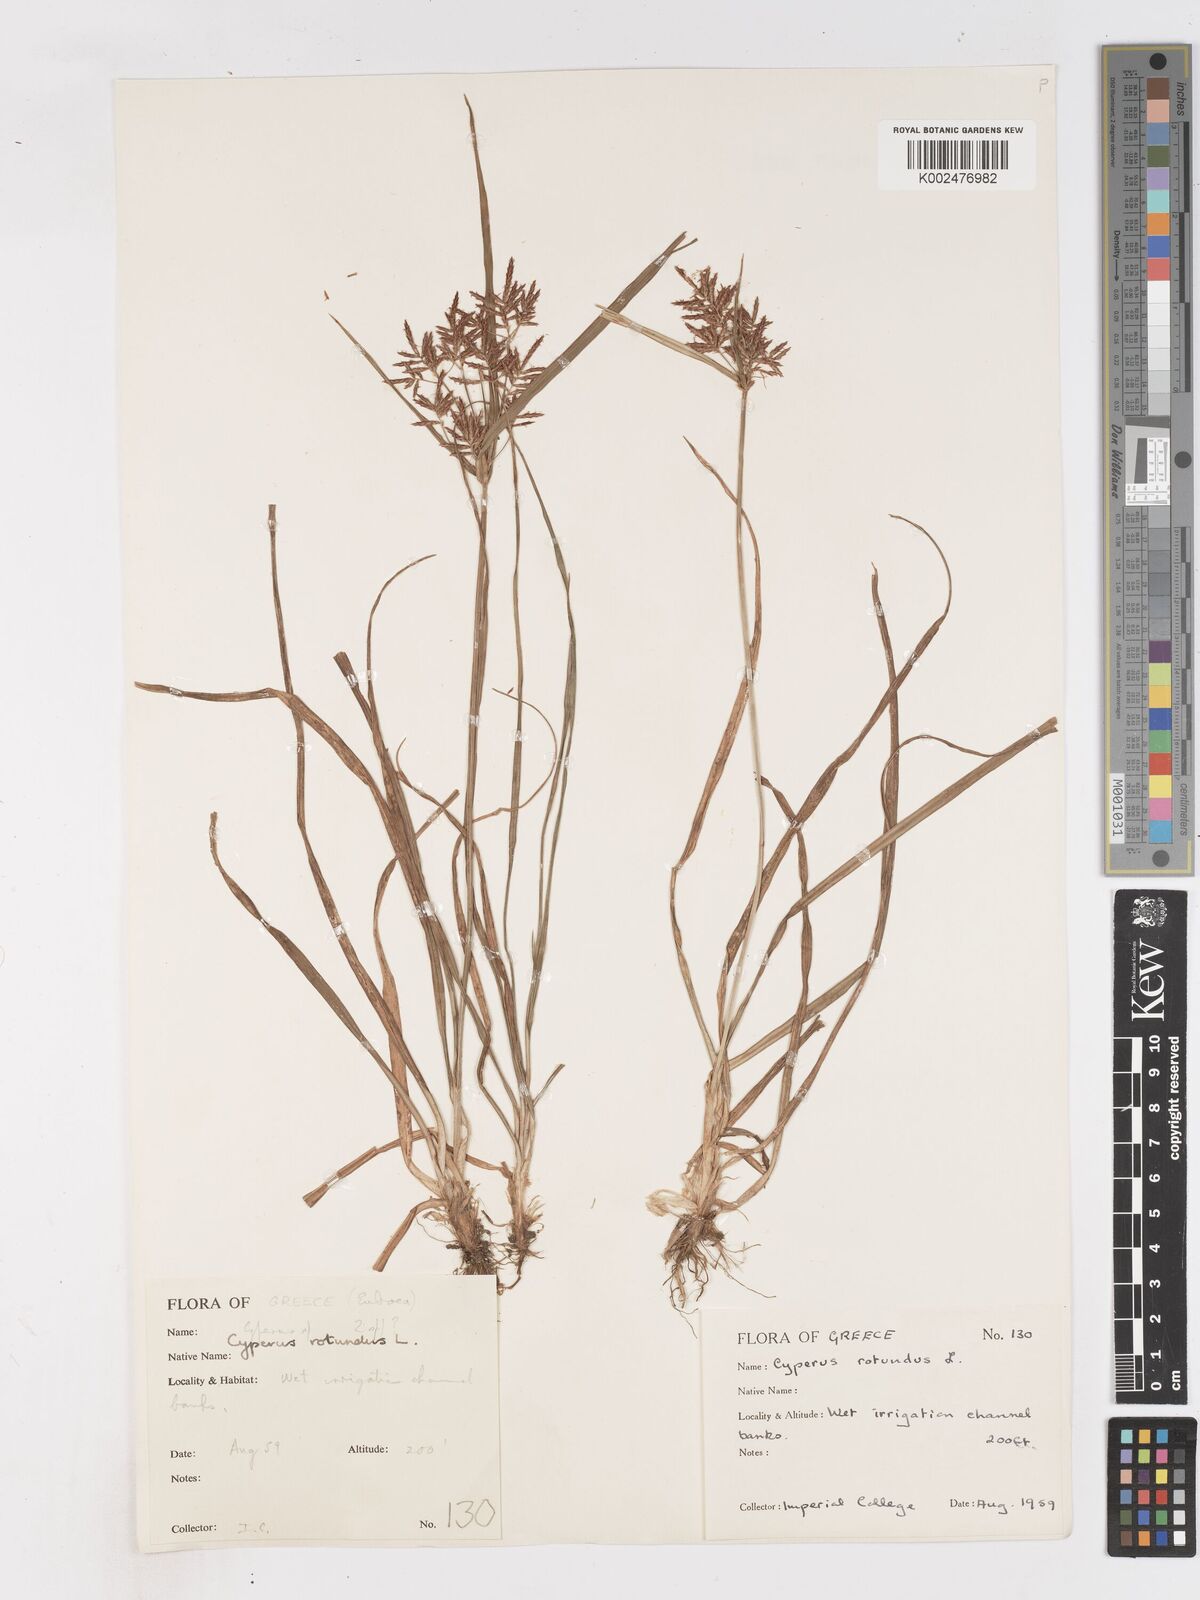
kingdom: Plantae
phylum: Tracheophyta
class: Liliopsida
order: Poales
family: Cyperaceae
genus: Cyperus
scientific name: Cyperus rotundus
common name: Nutgrass
